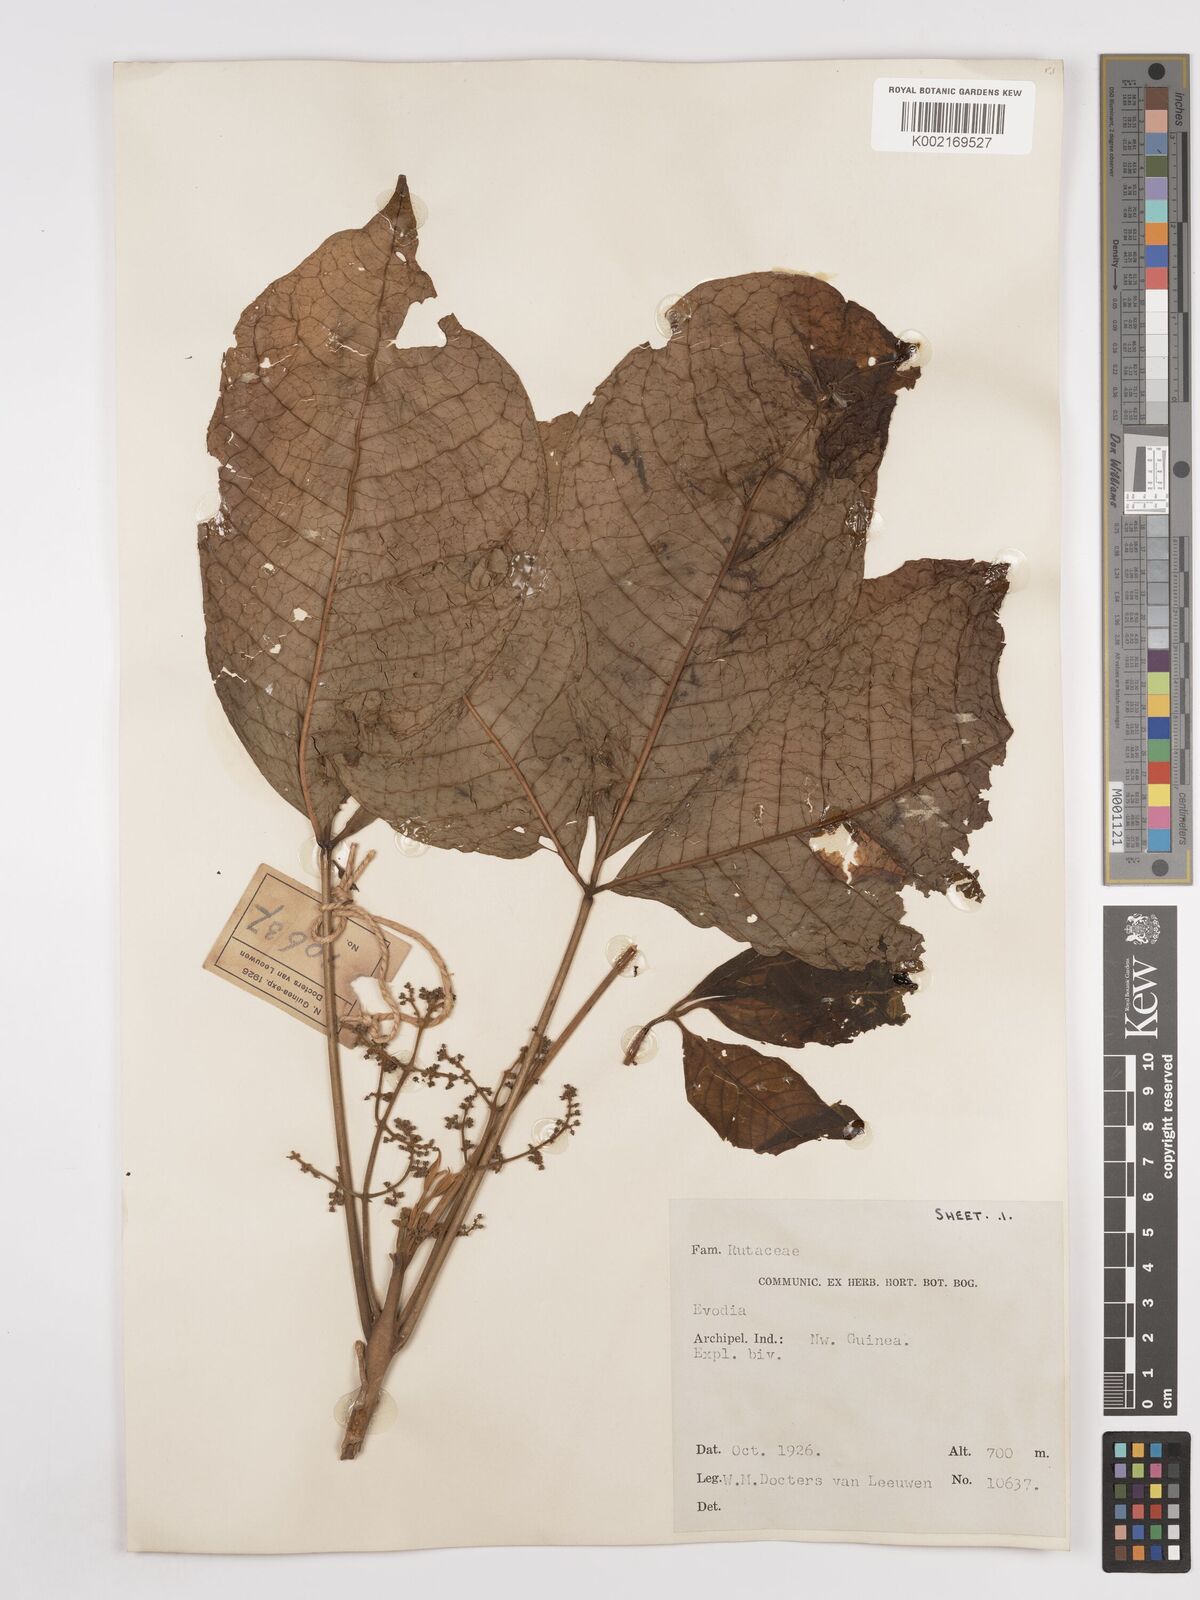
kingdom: Plantae
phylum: Tracheophyta
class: Magnoliopsida
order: Sapindales
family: Rutaceae
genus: Euodia
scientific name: Euodia
